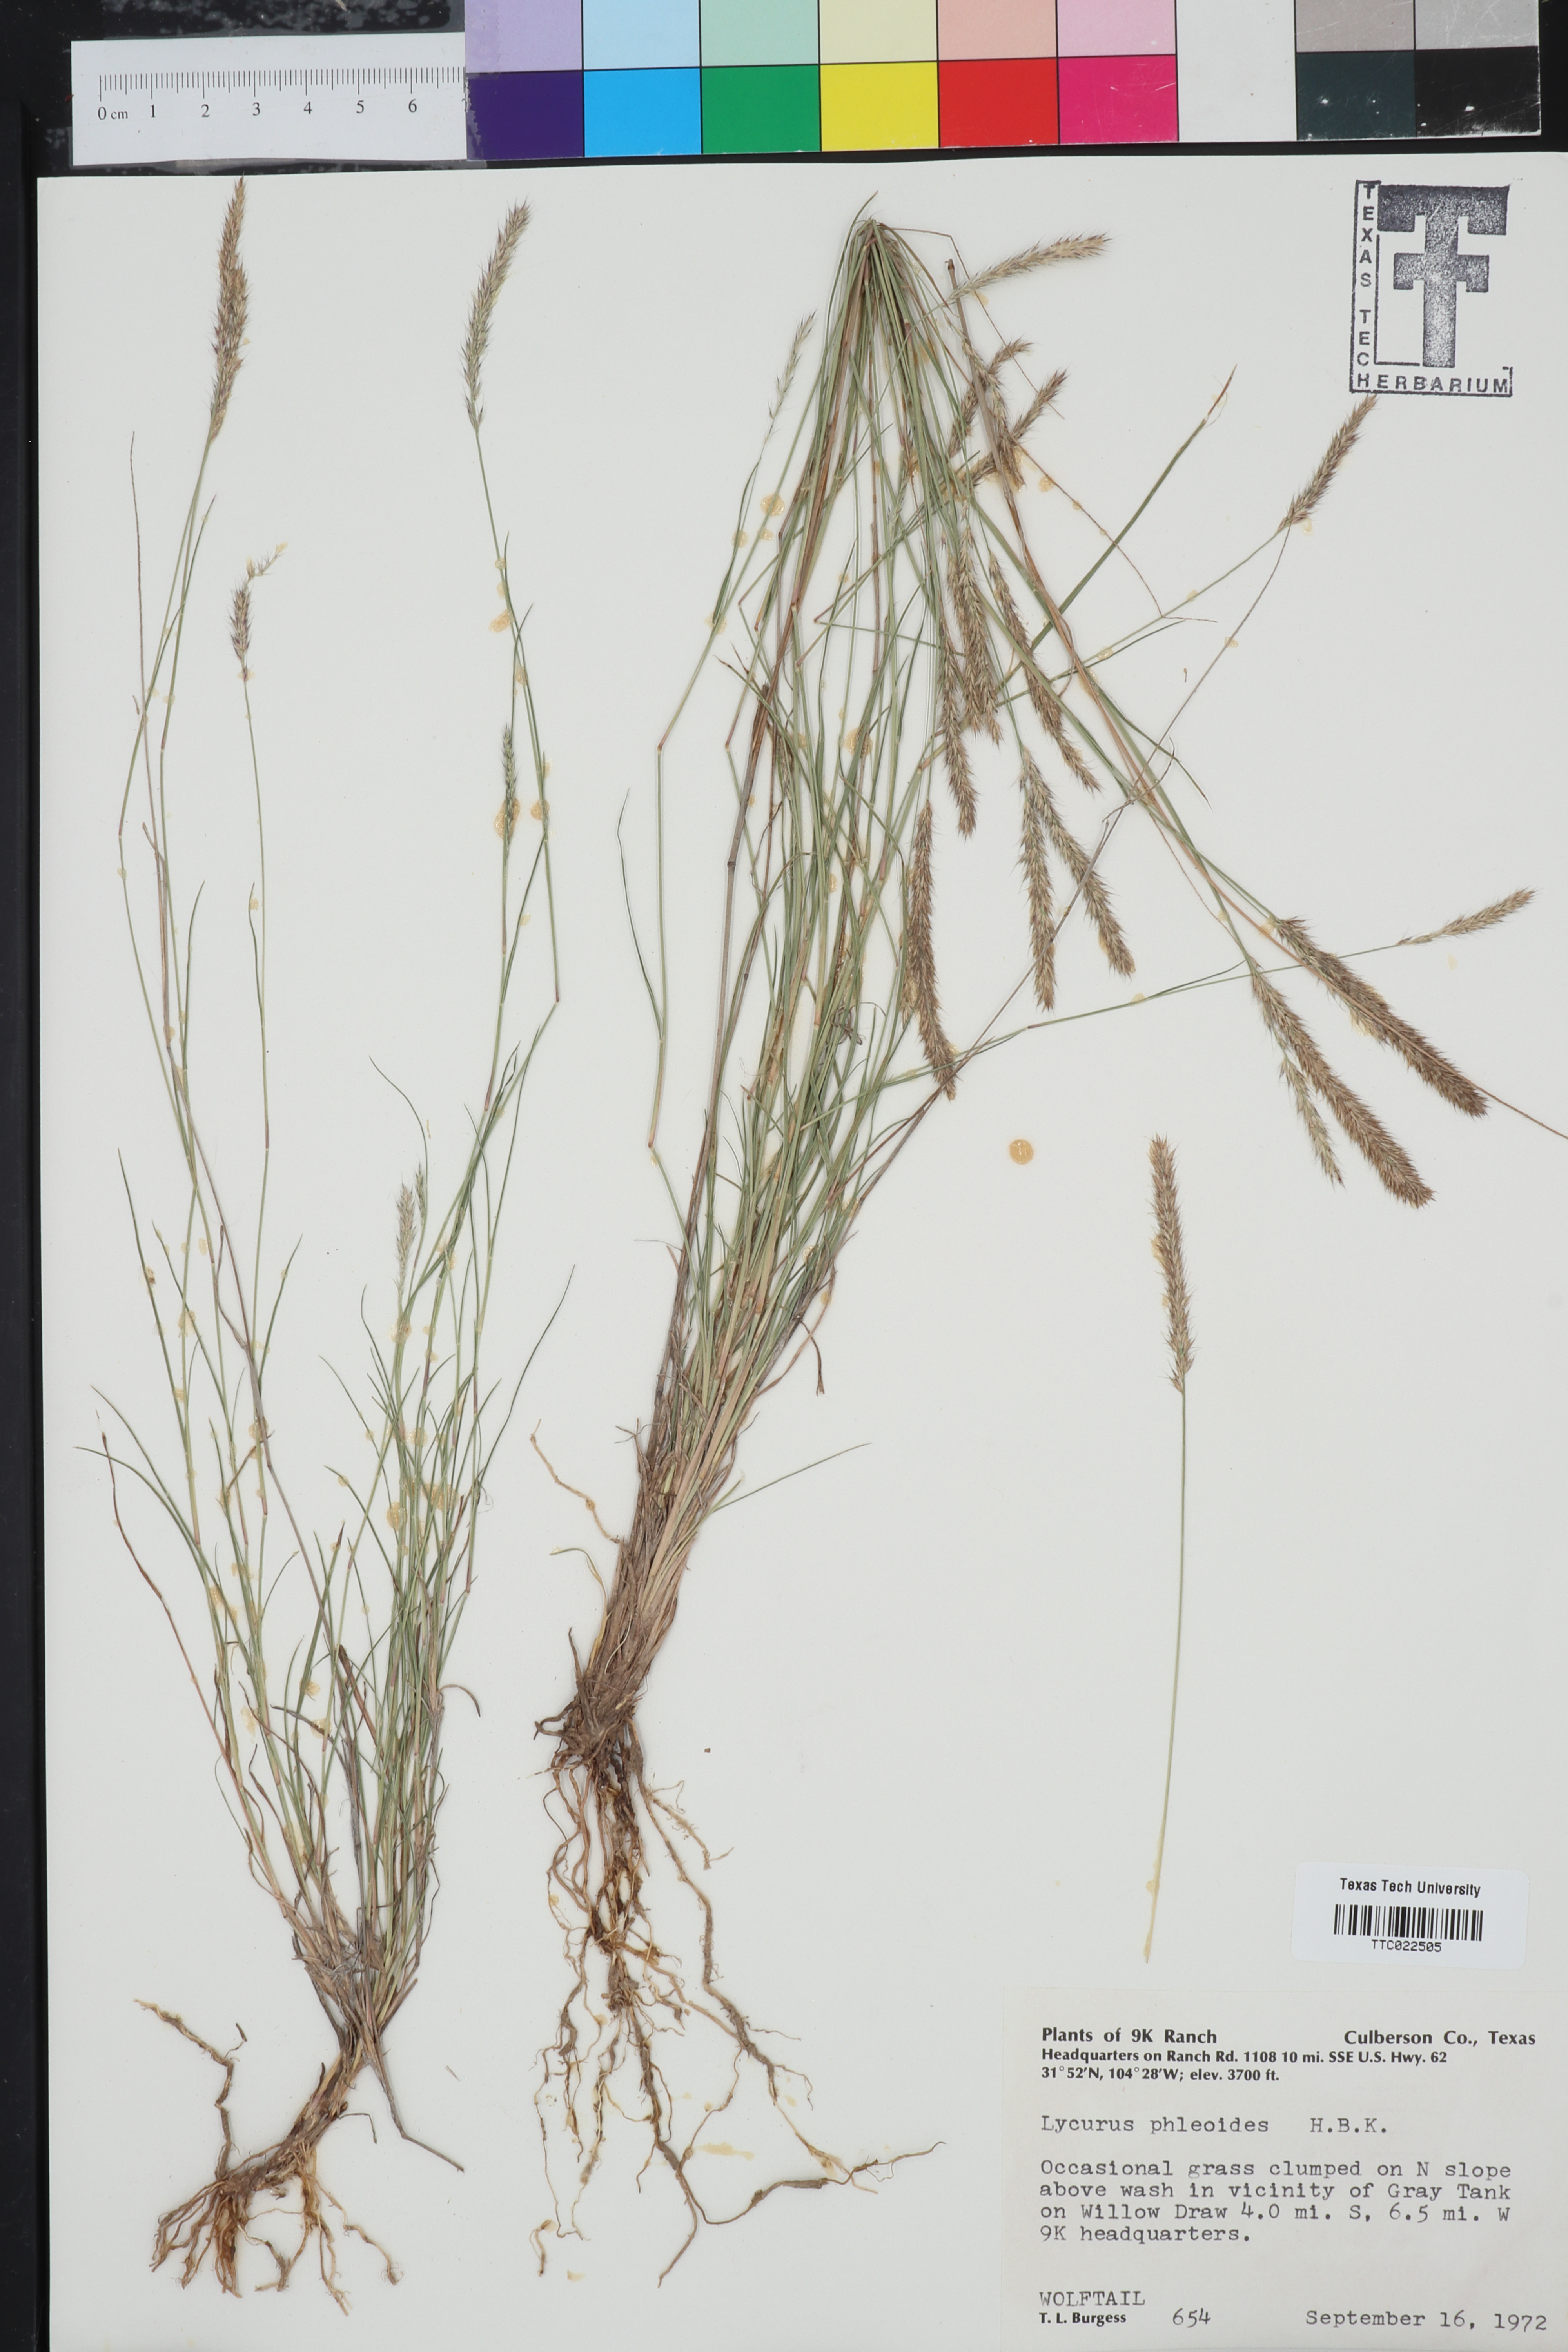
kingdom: Plantae
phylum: Tracheophyta
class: Liliopsida
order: Poales
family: Poaceae
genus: Muhlenbergia
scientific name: Muhlenbergia phleoides
